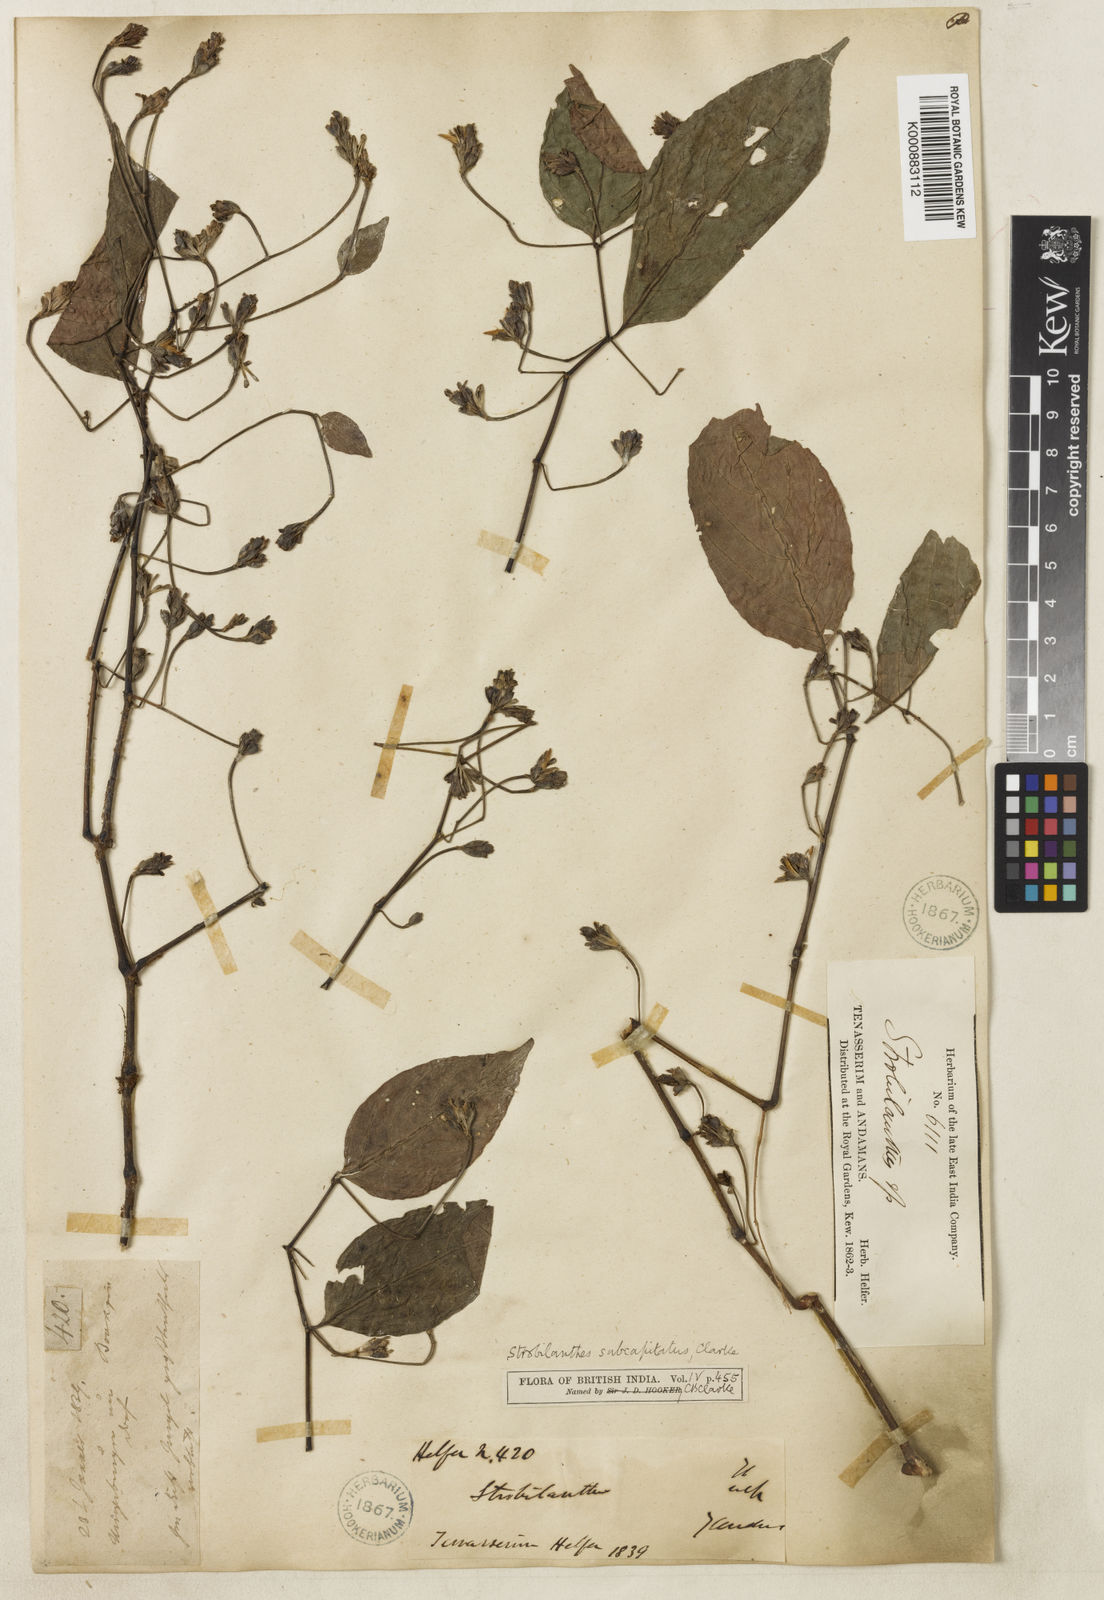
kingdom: Plantae
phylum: Tracheophyta
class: Magnoliopsida
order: Lamiales
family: Acanthaceae
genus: Strobilanthes
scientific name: Strobilanthes paniculata
